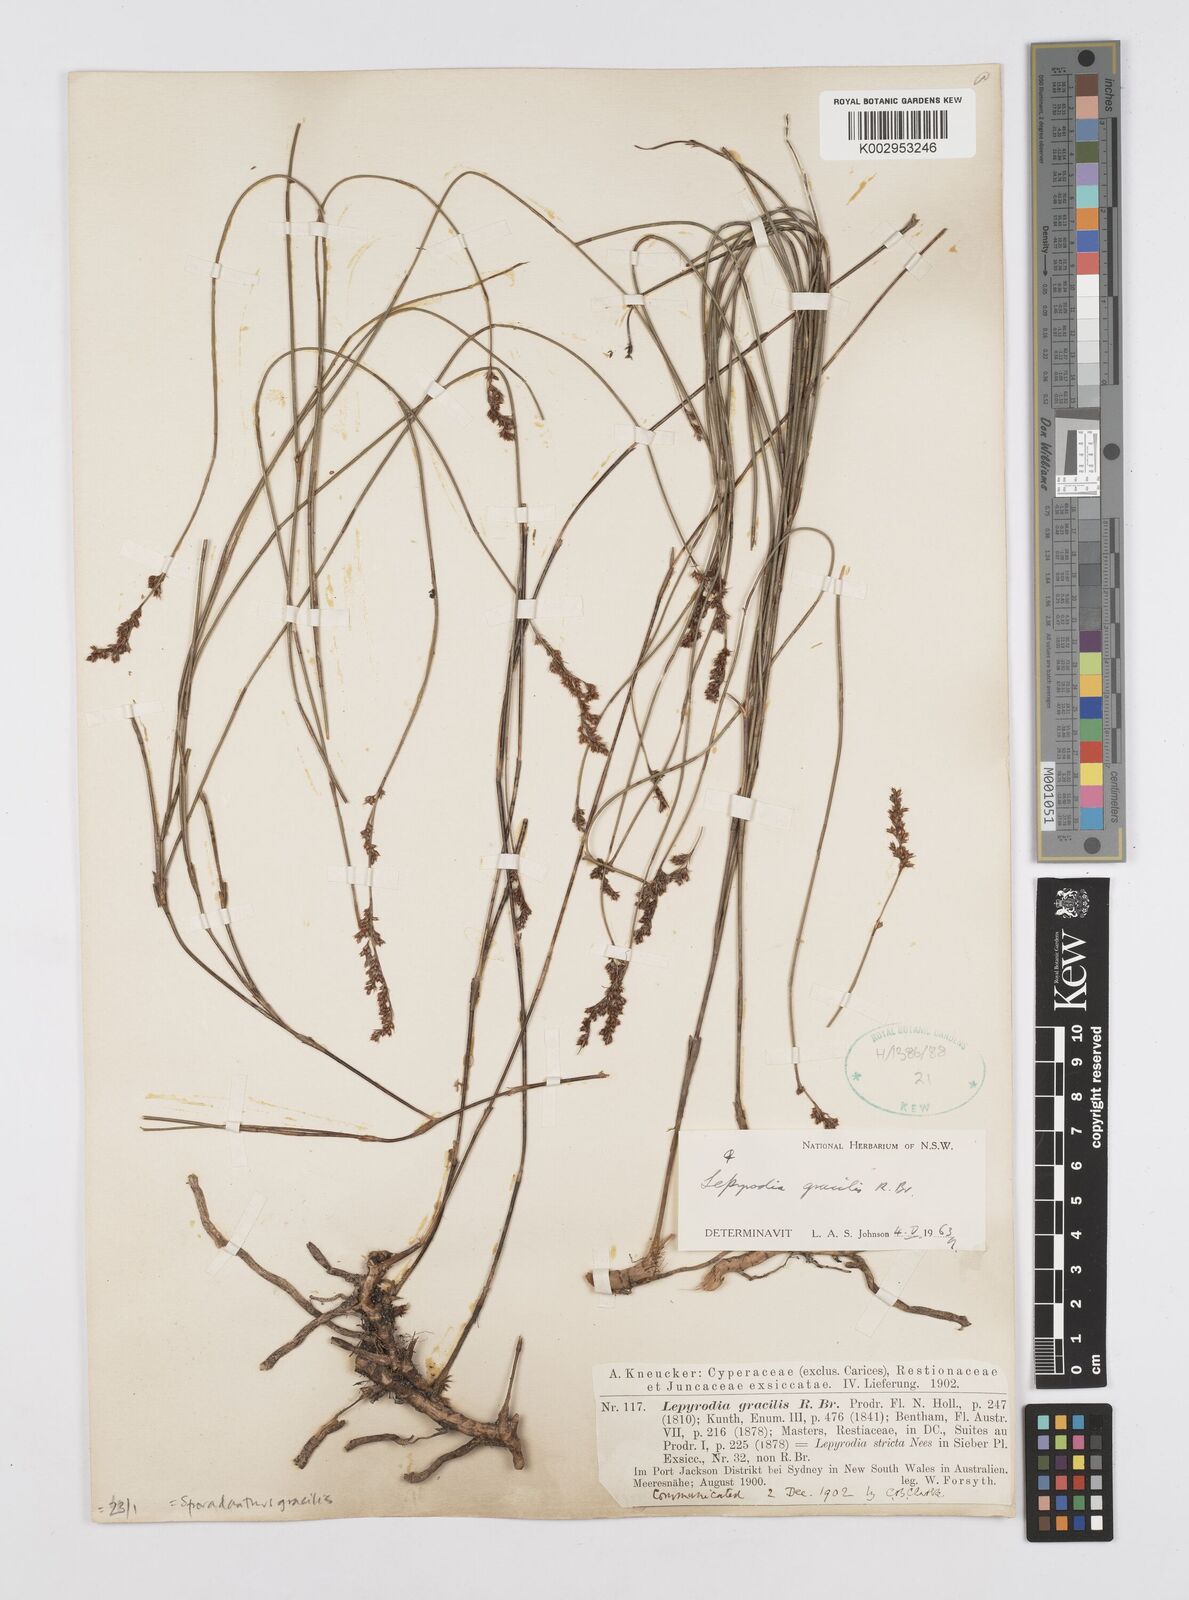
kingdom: Plantae
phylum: Tracheophyta
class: Liliopsida
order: Poales
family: Restionaceae
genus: Sporadanthus
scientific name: Sporadanthus gracilis
